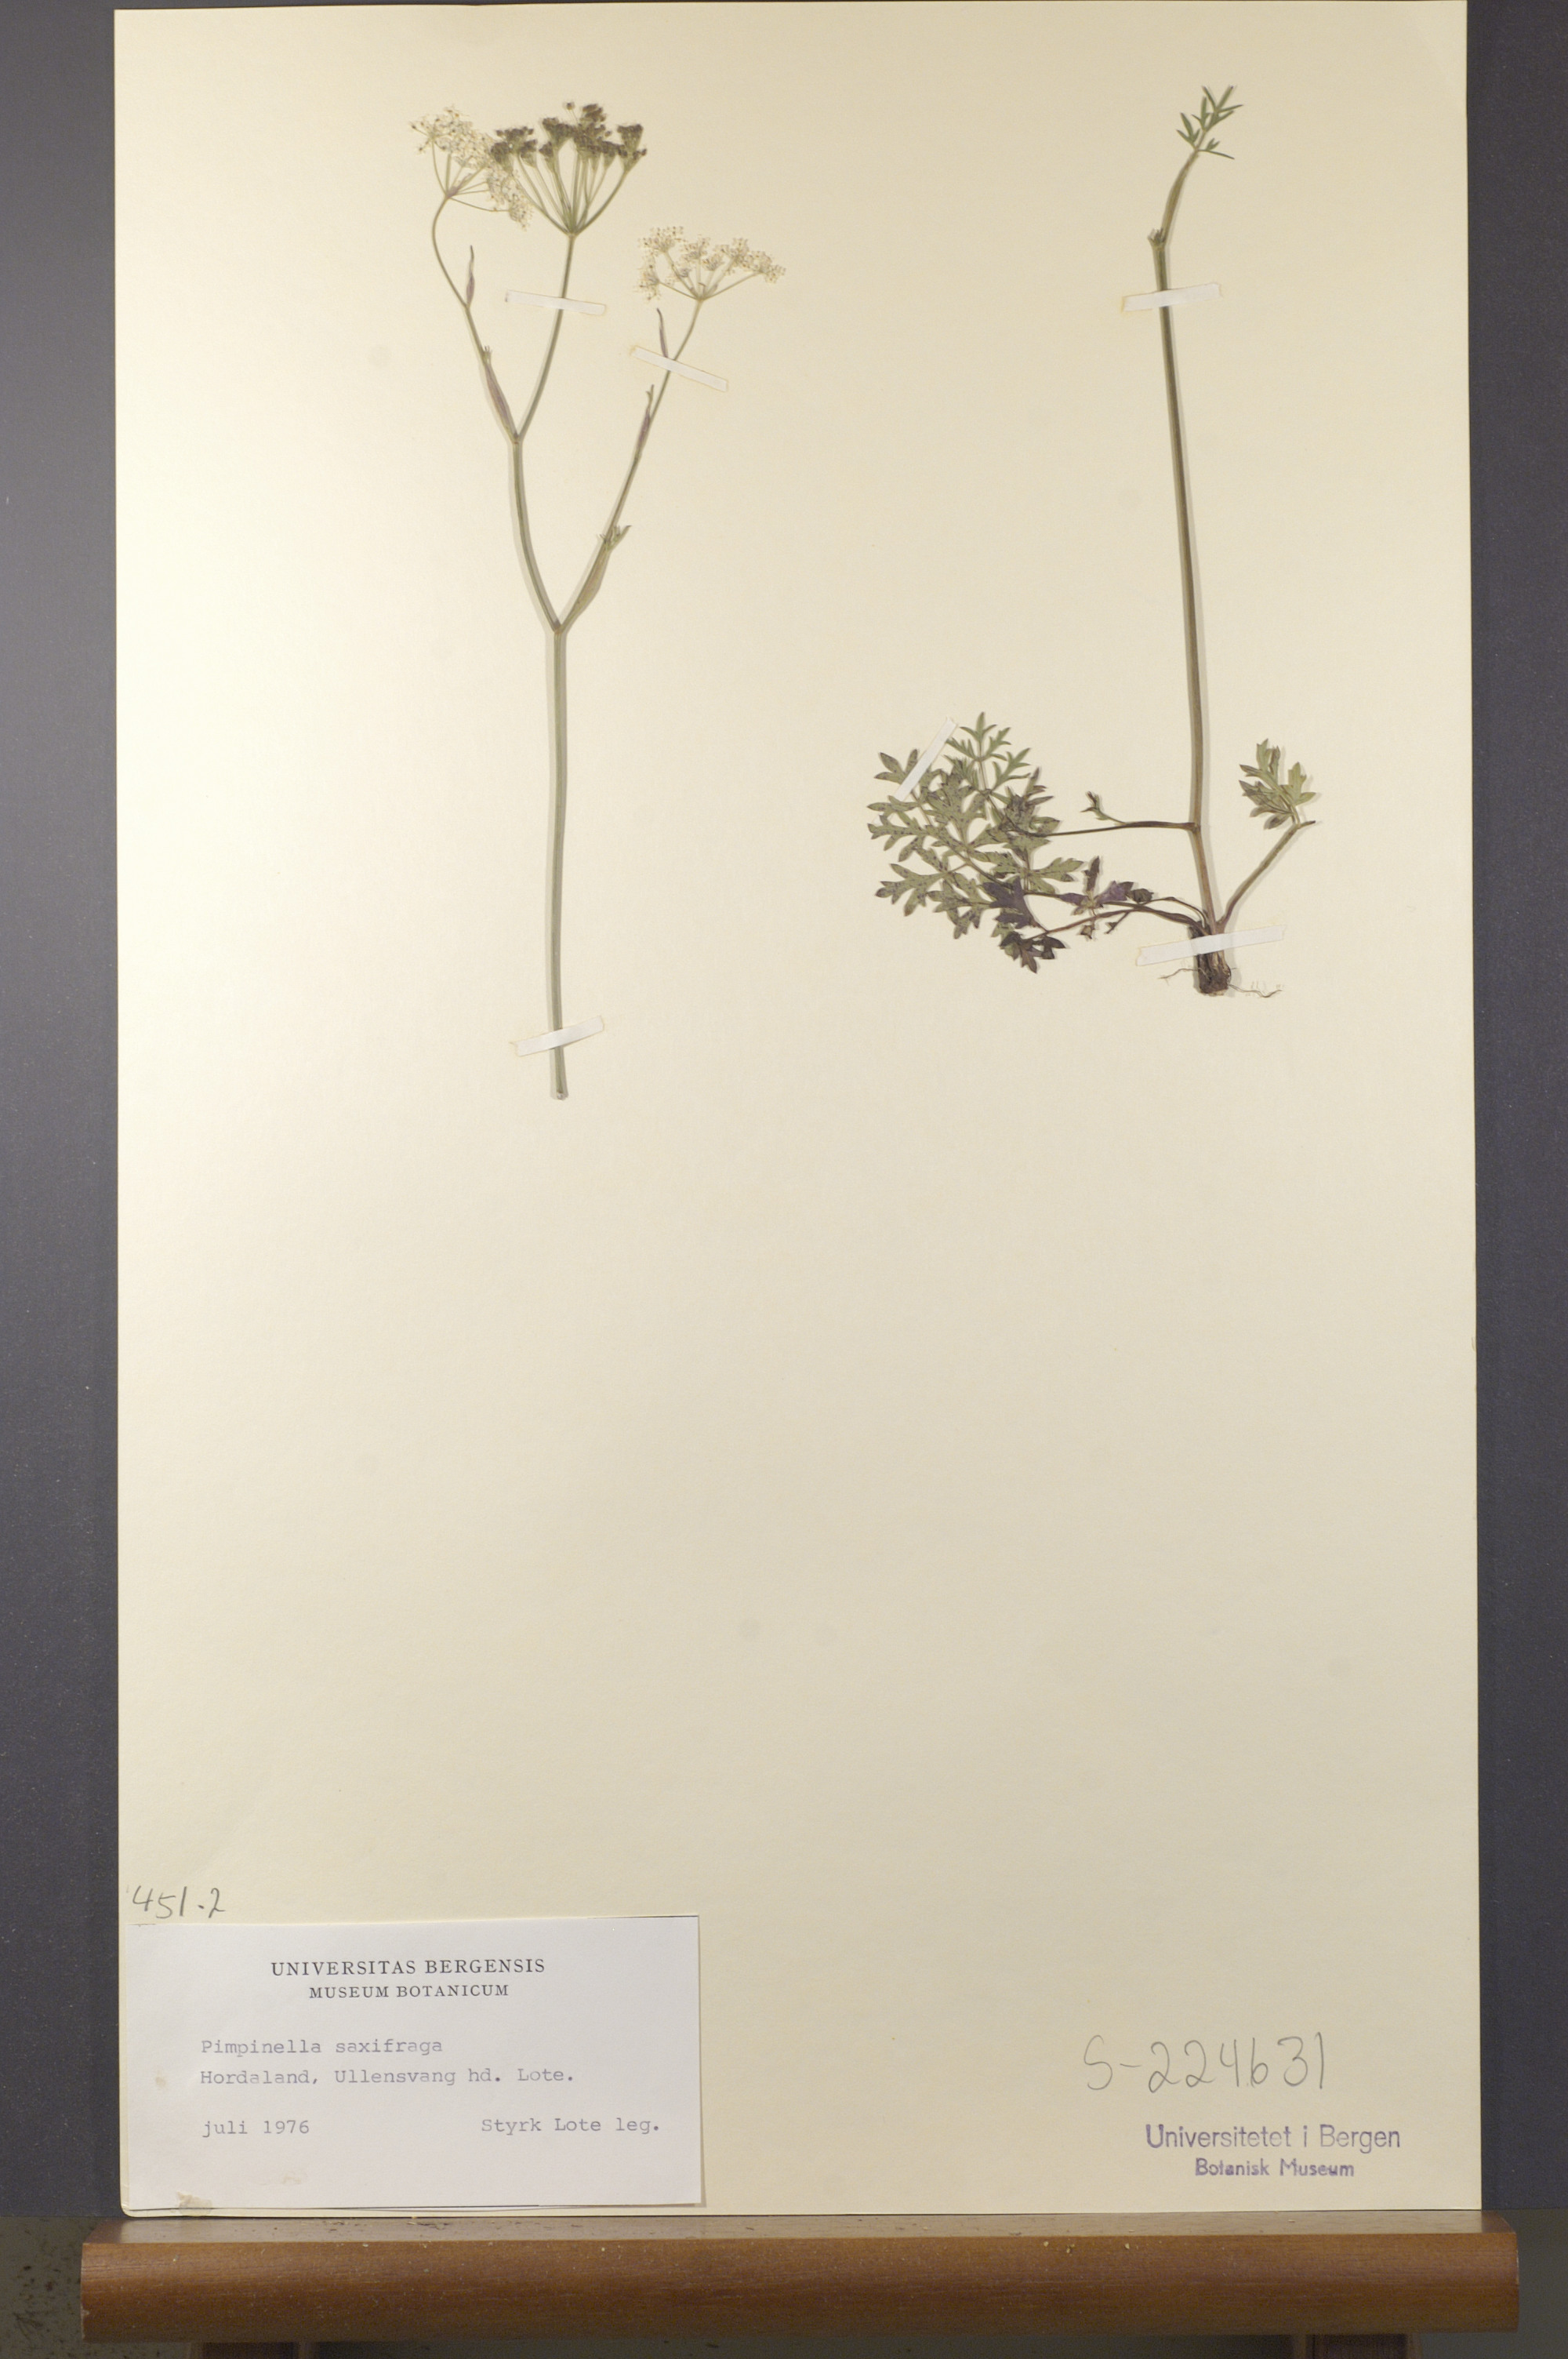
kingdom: Plantae
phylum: Tracheophyta
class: Magnoliopsida
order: Apiales
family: Apiaceae
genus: Pimpinella
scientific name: Pimpinella saxifraga
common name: Burnet-saxifrage
